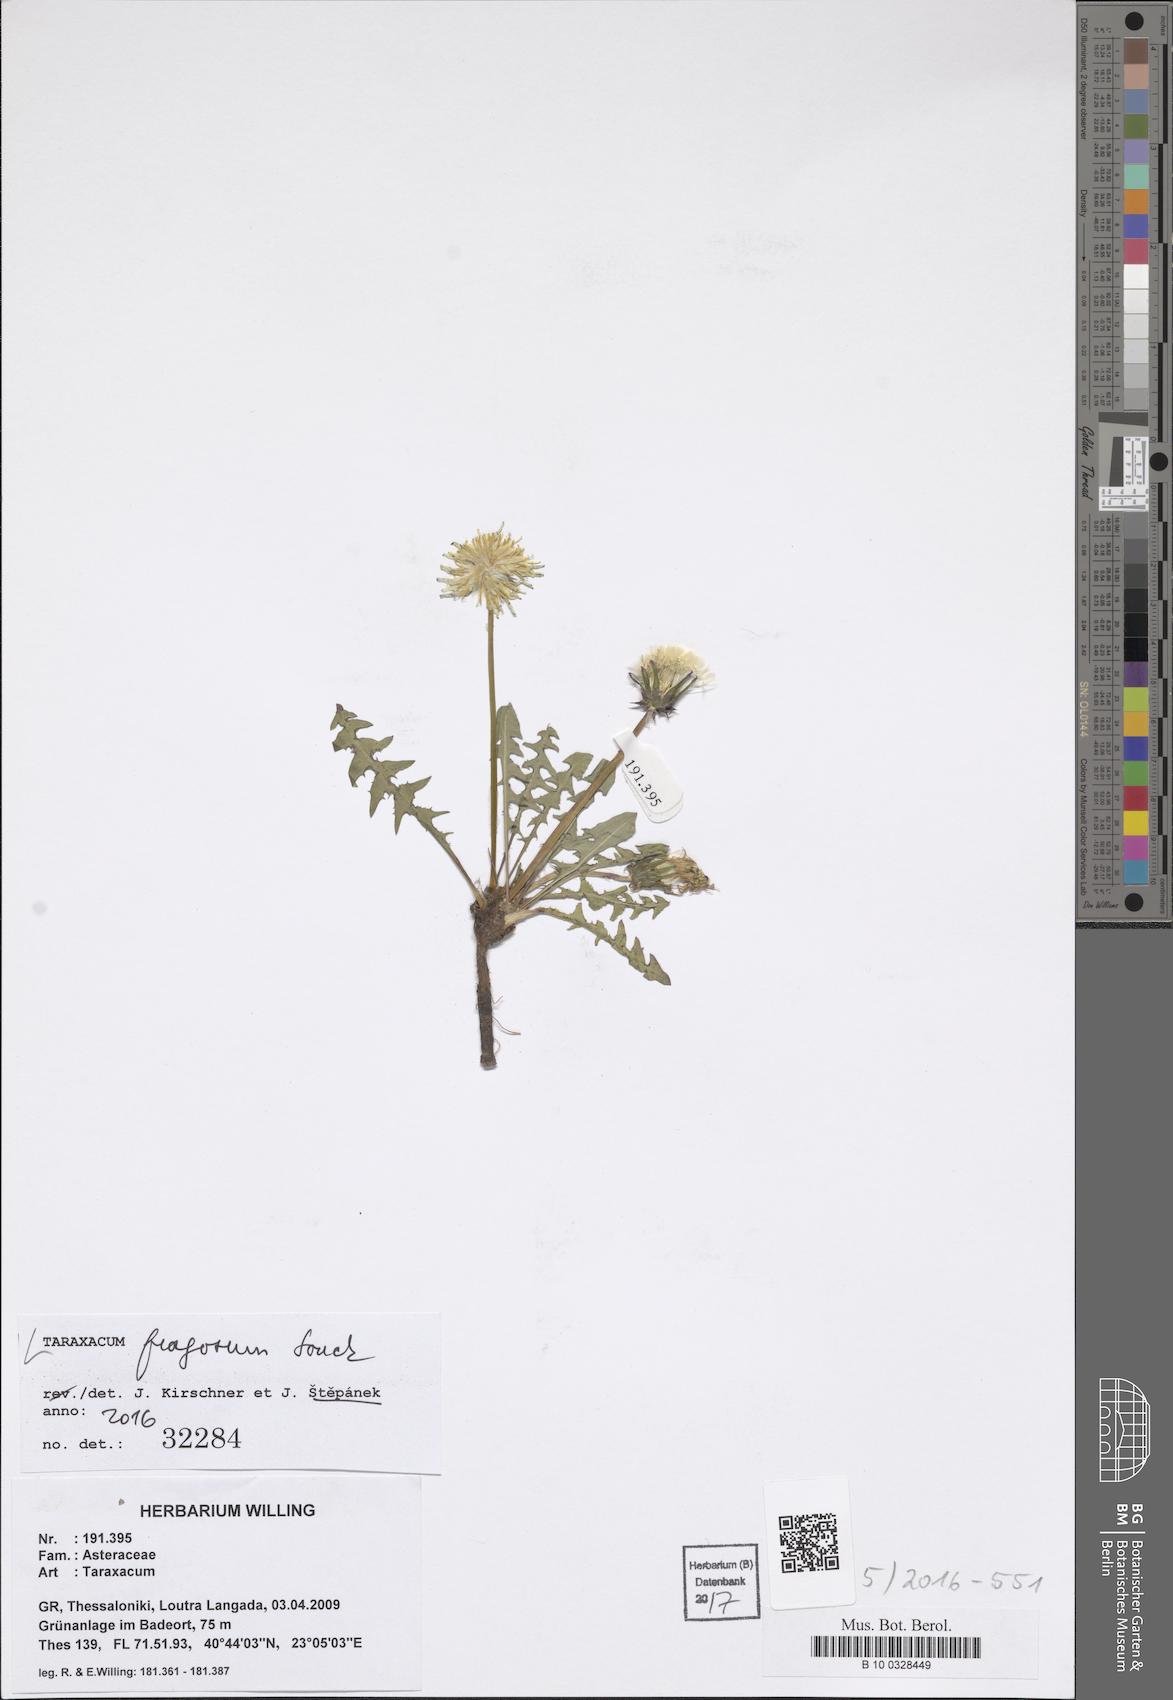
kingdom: Plantae
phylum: Tracheophyta
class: Magnoliopsida
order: Asterales
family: Asteraceae
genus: Taraxacum
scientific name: Taraxacum fragosum
